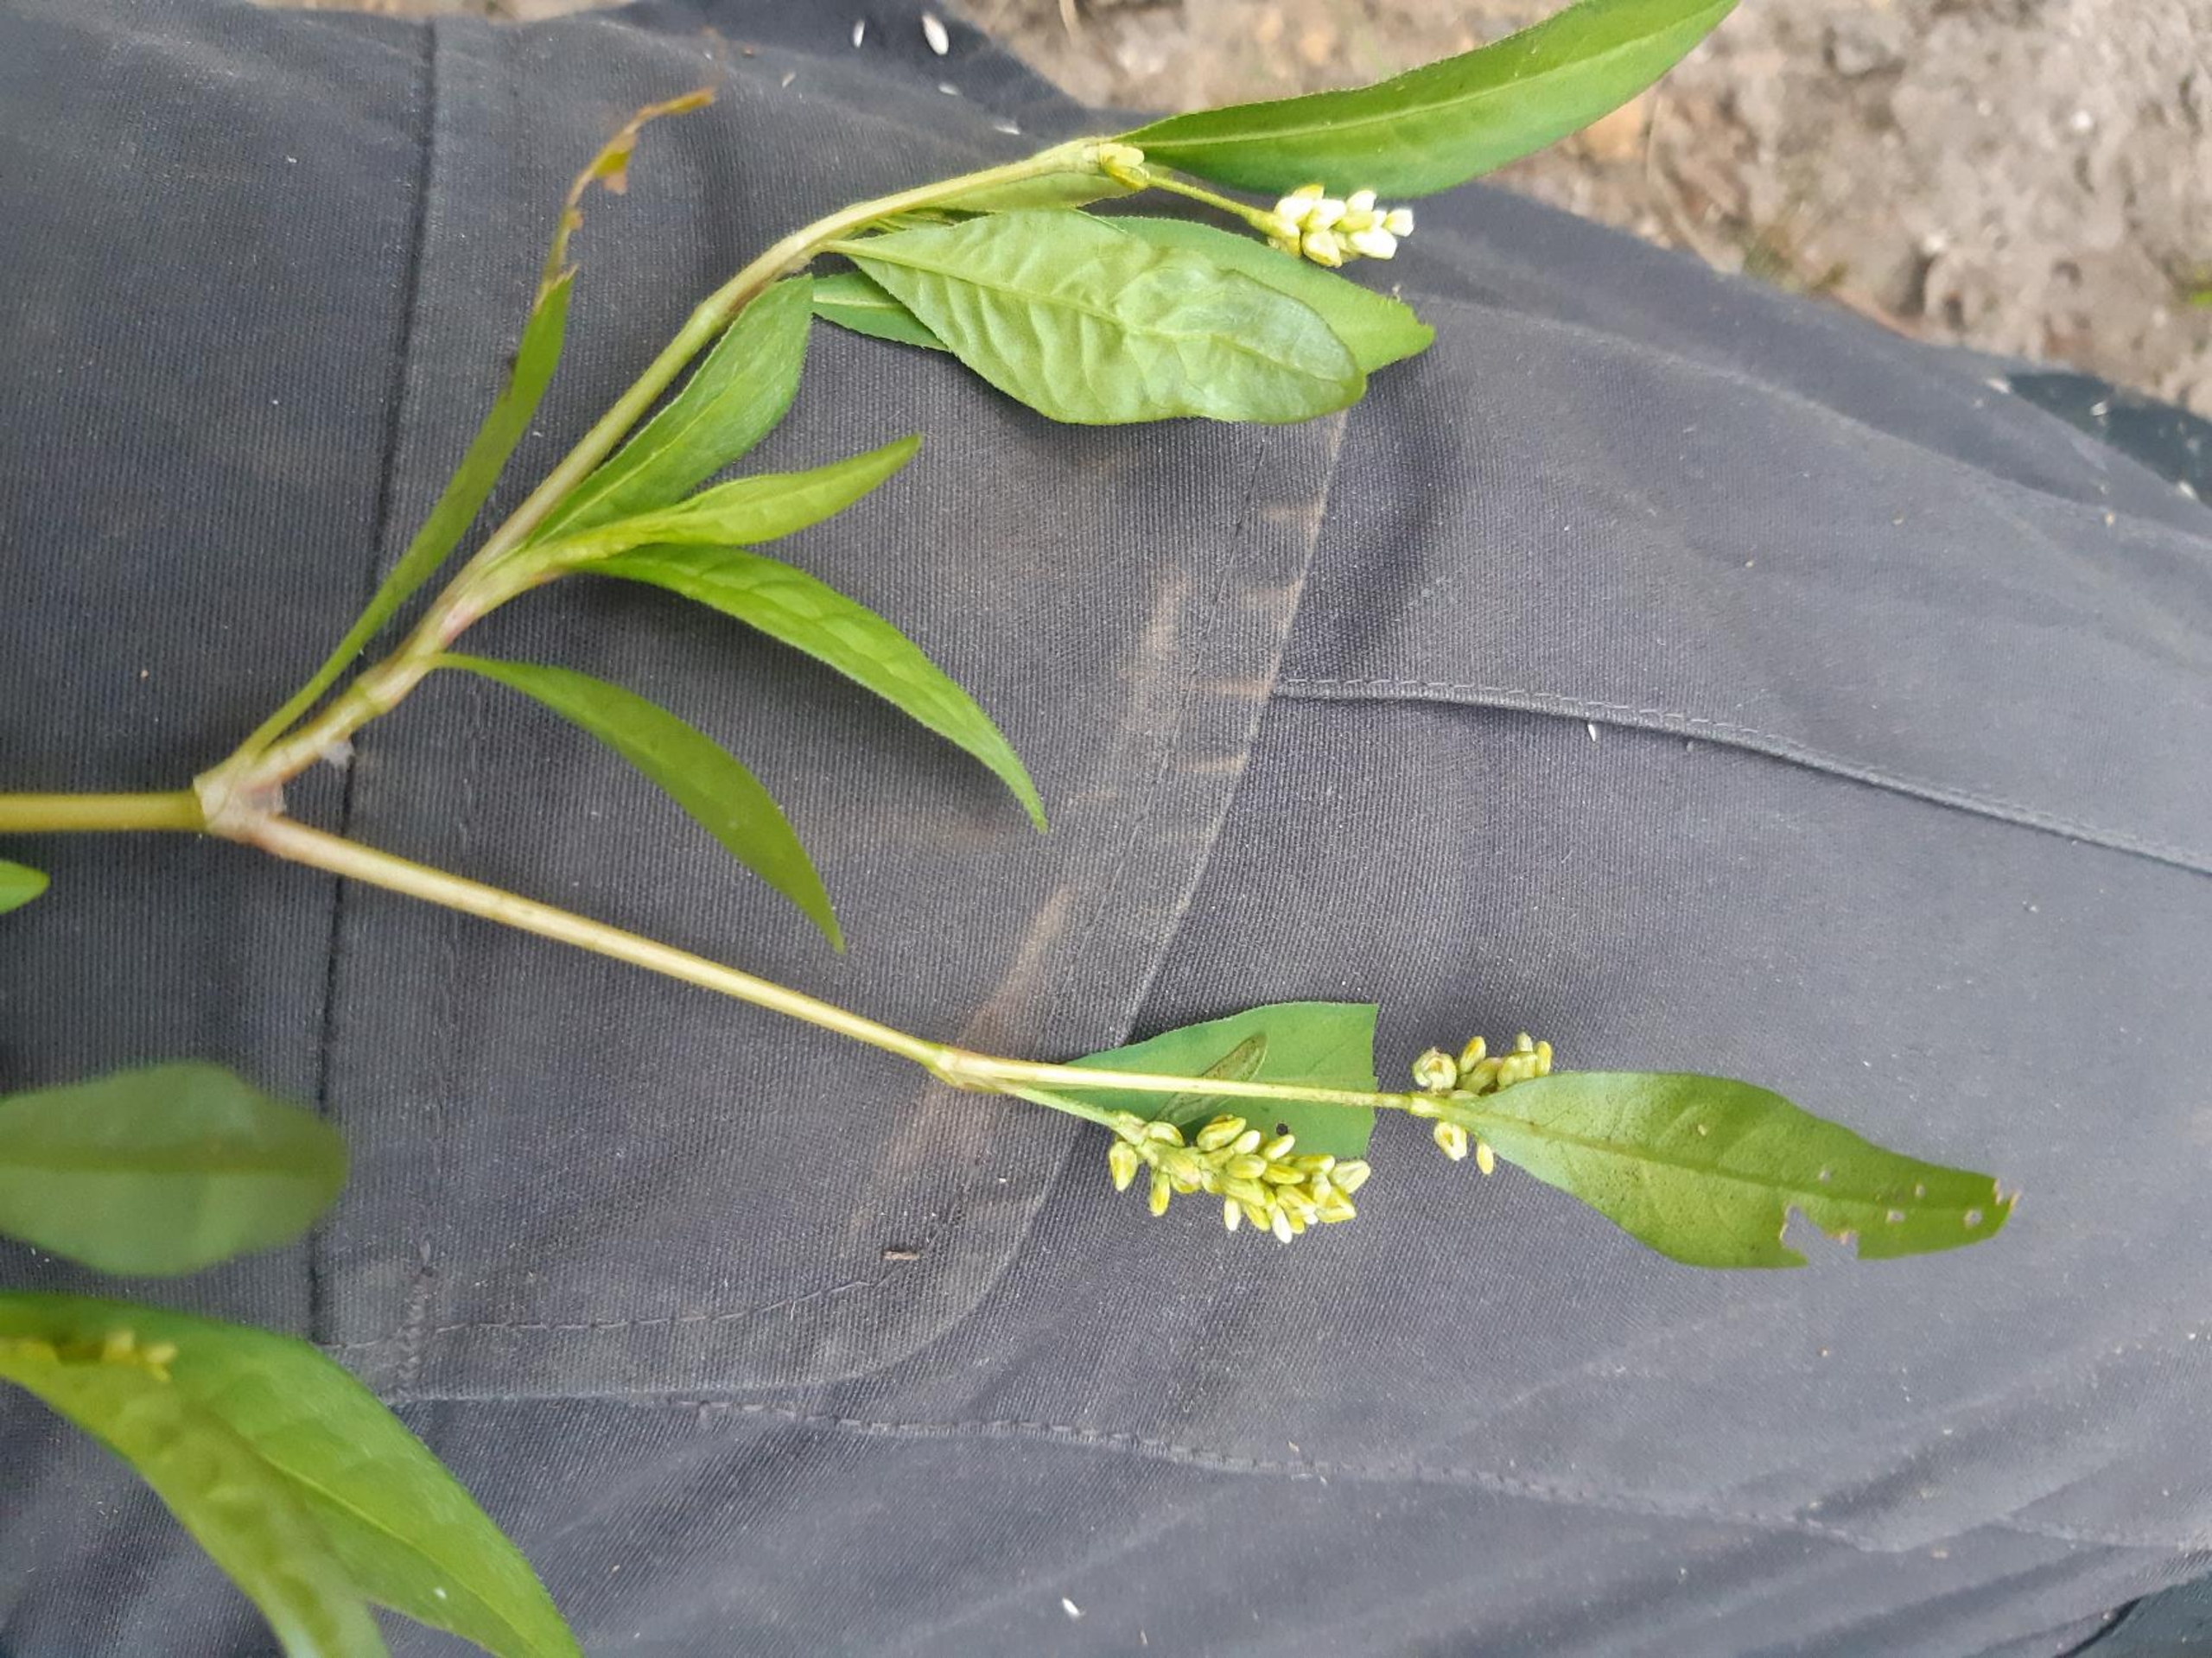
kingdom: Plantae
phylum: Tracheophyta
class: Magnoliopsida
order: Caryophyllales
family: Polygonaceae
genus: Persicaria
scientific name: Persicaria lapathifolia
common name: Bleg pileurt
